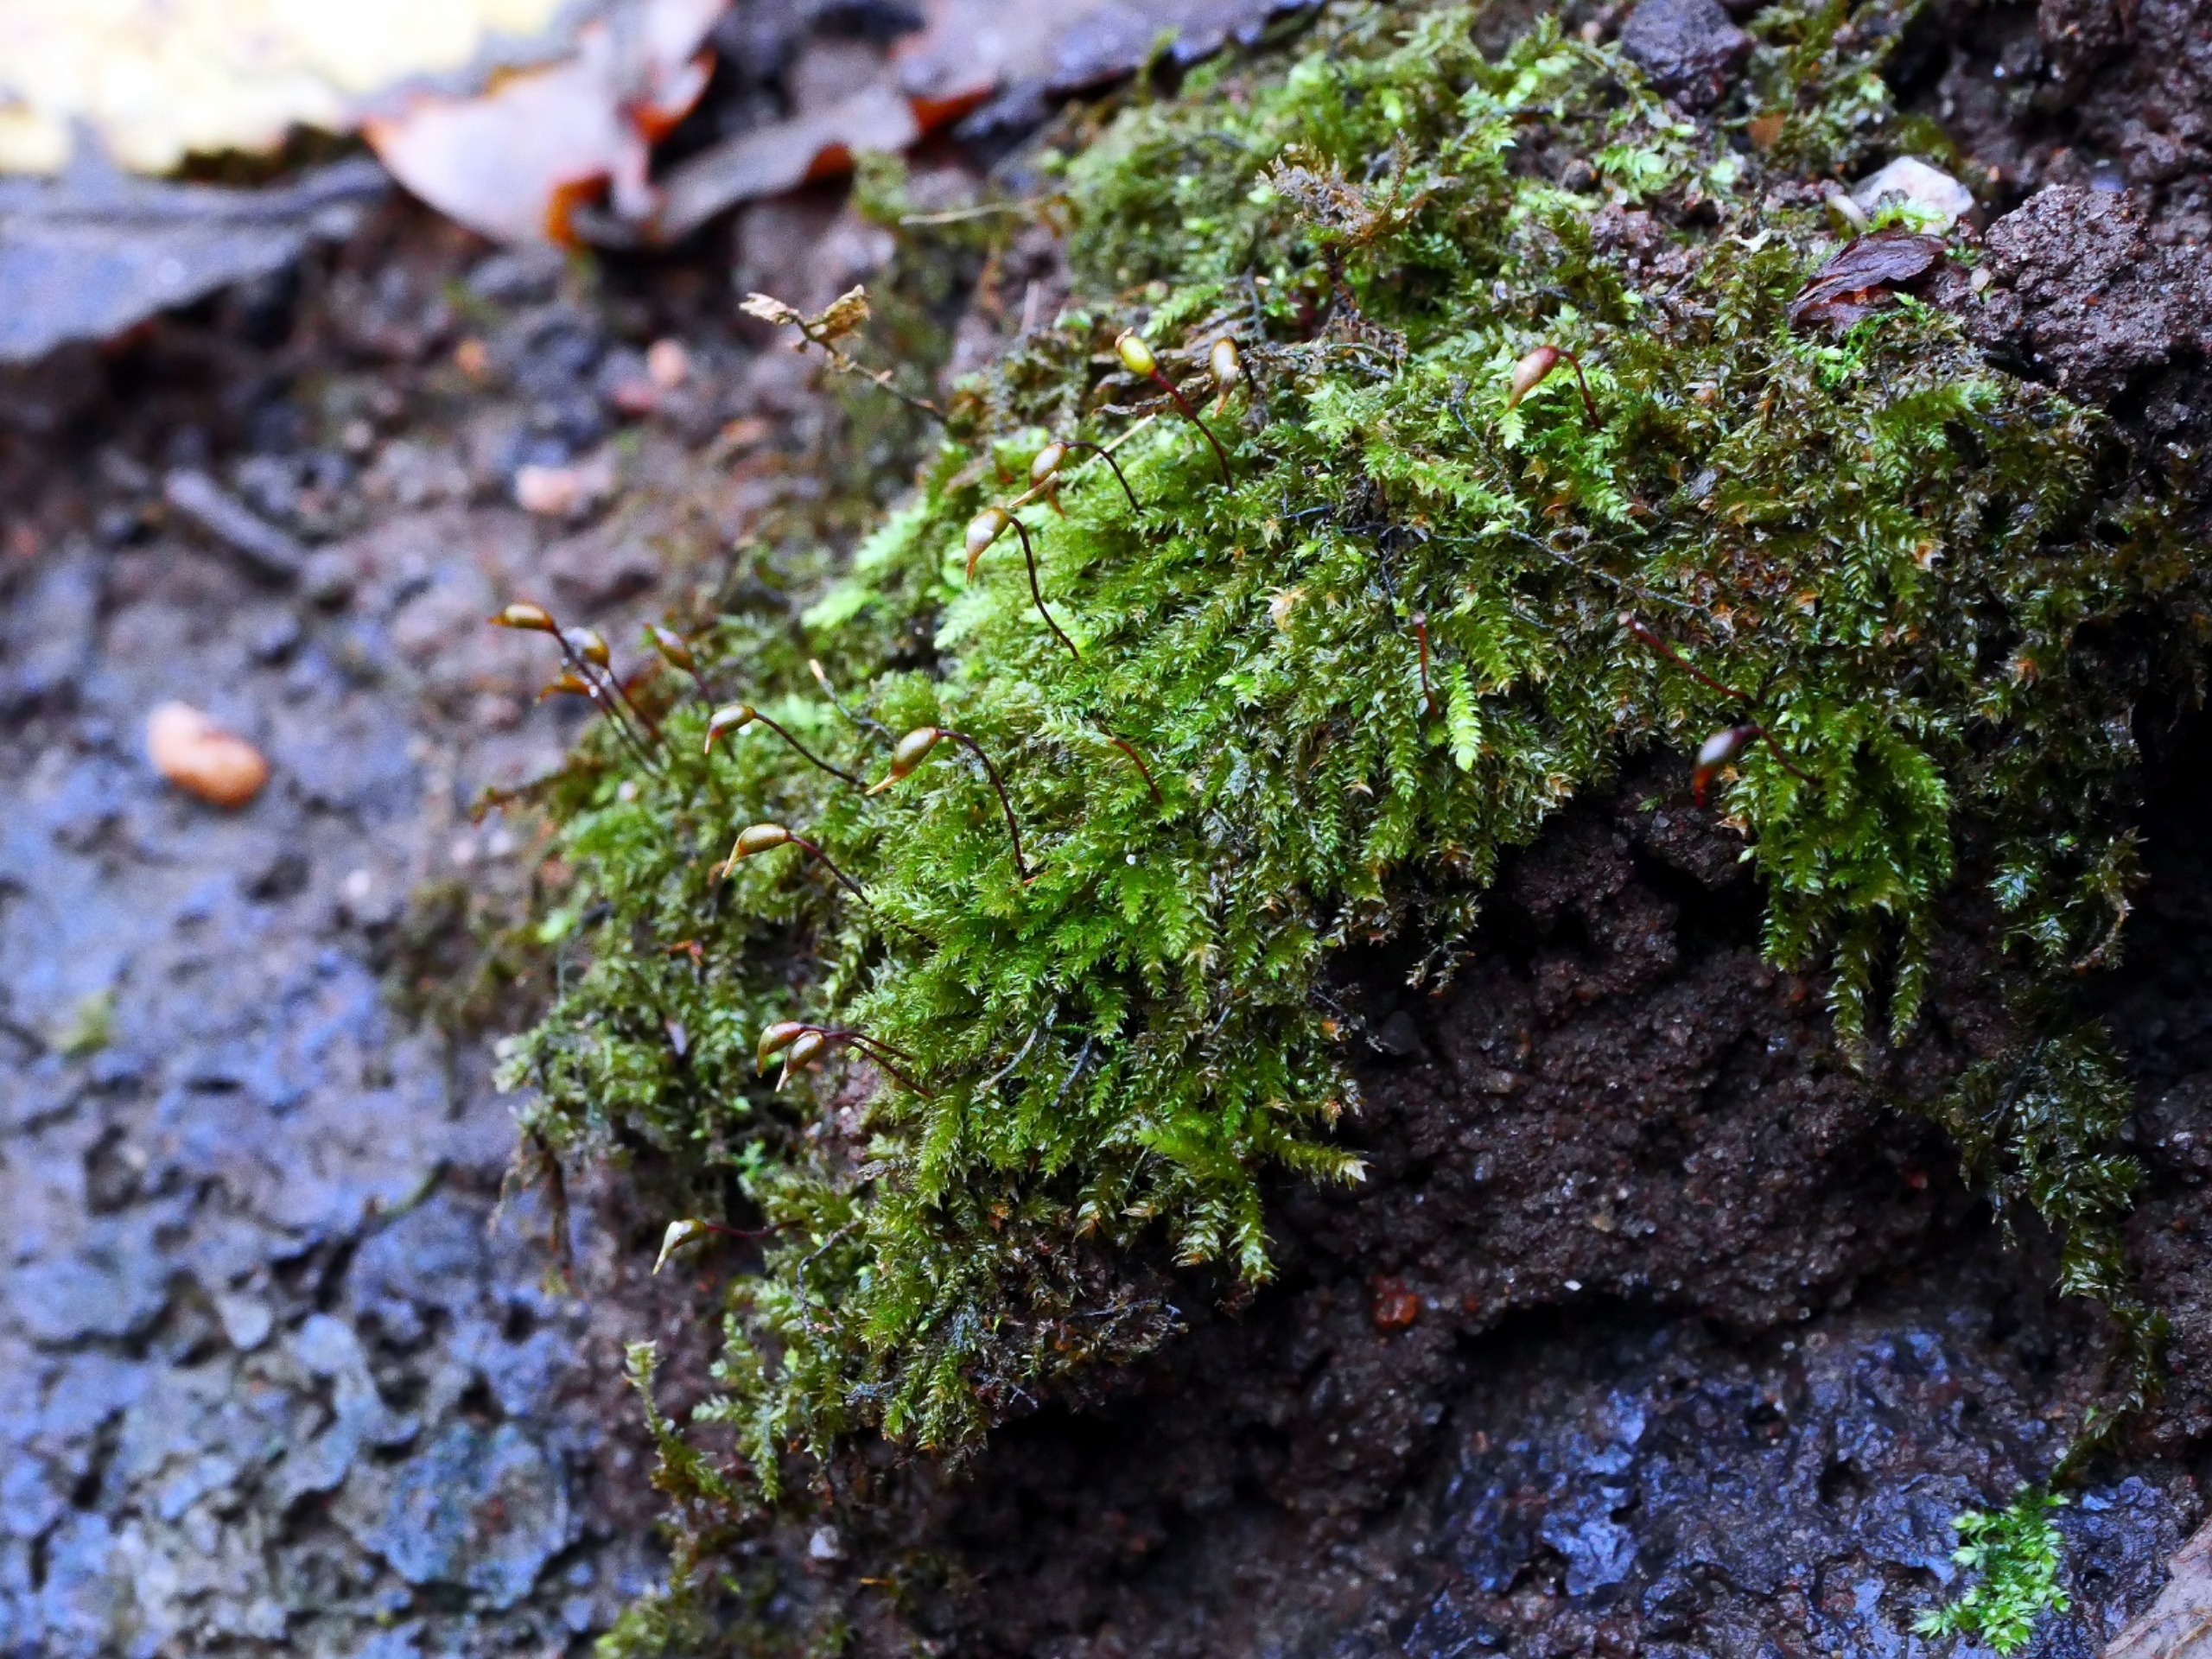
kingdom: Plantae
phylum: Bryophyta
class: Bryopsida
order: Hypnales
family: Brachytheciaceae
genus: Oxyrrhynchium
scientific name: Oxyrrhynchium schleicheri
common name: Vredet vortetand
